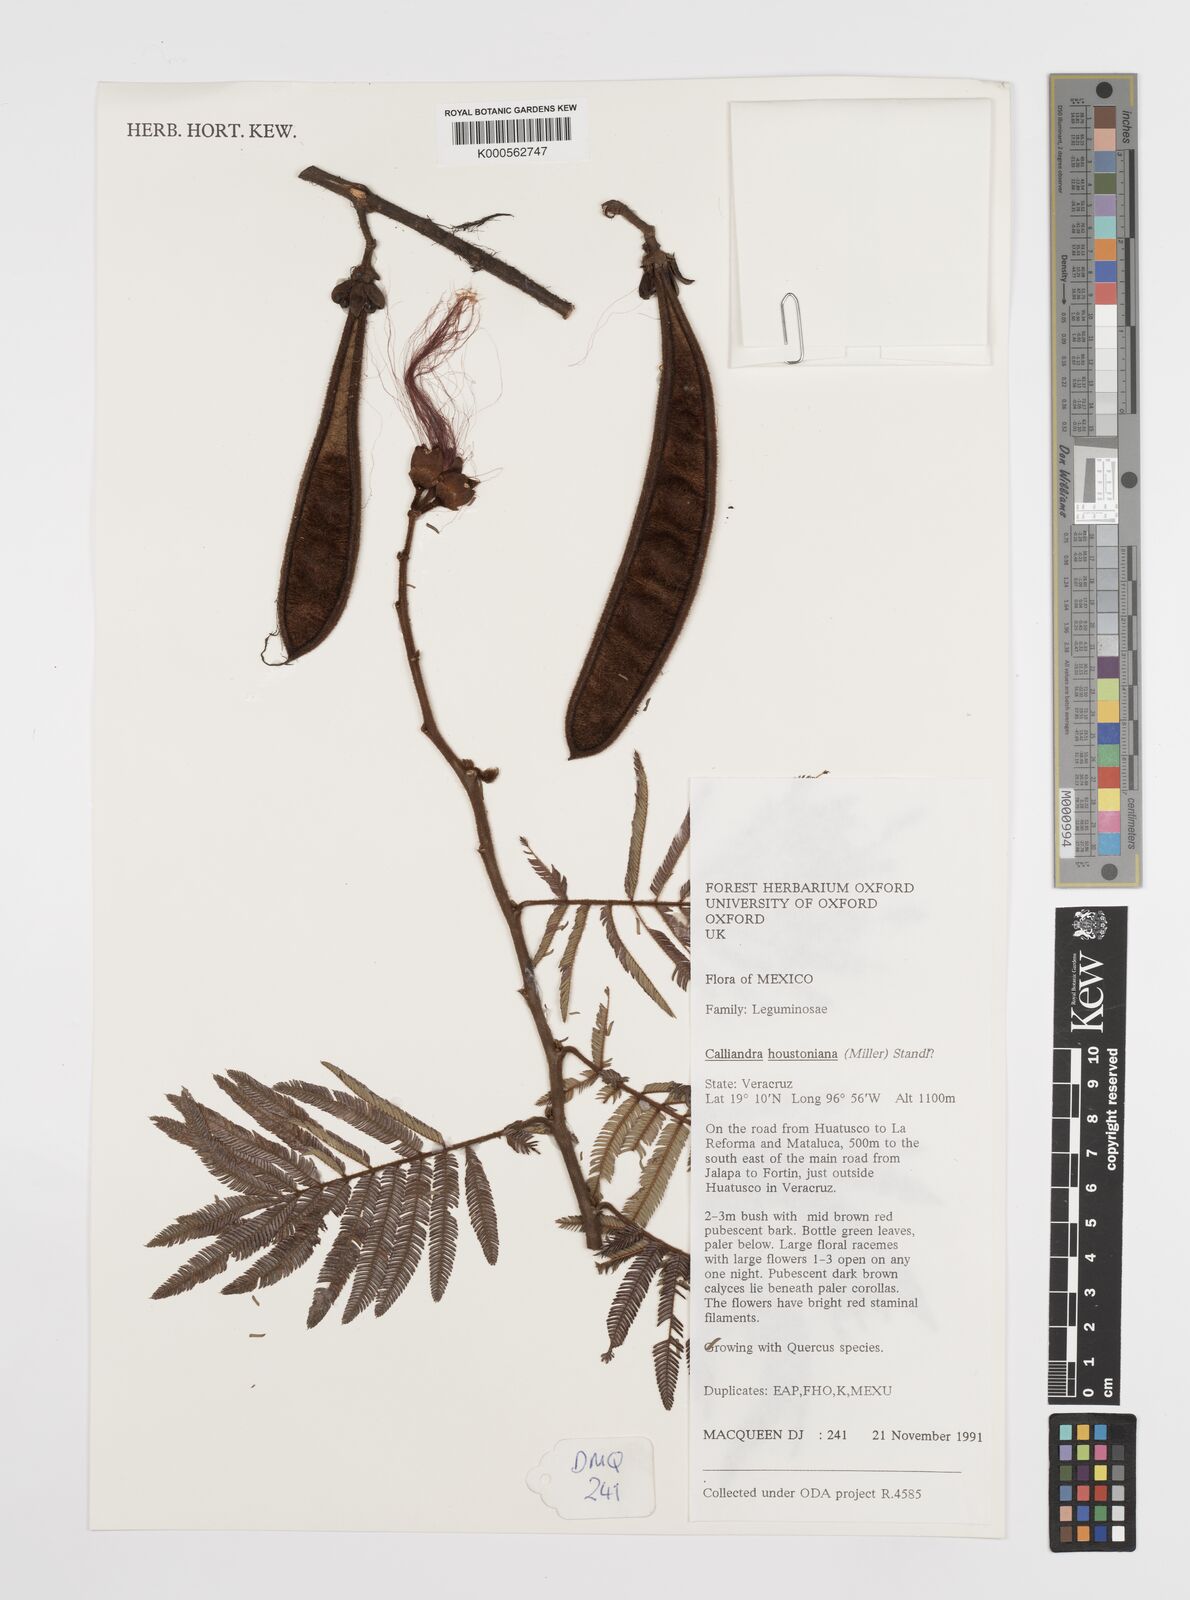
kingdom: Plantae
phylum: Tracheophyta
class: Magnoliopsida
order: Fabales
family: Fabaceae
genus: Calliandra
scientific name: Calliandra houstoniana
